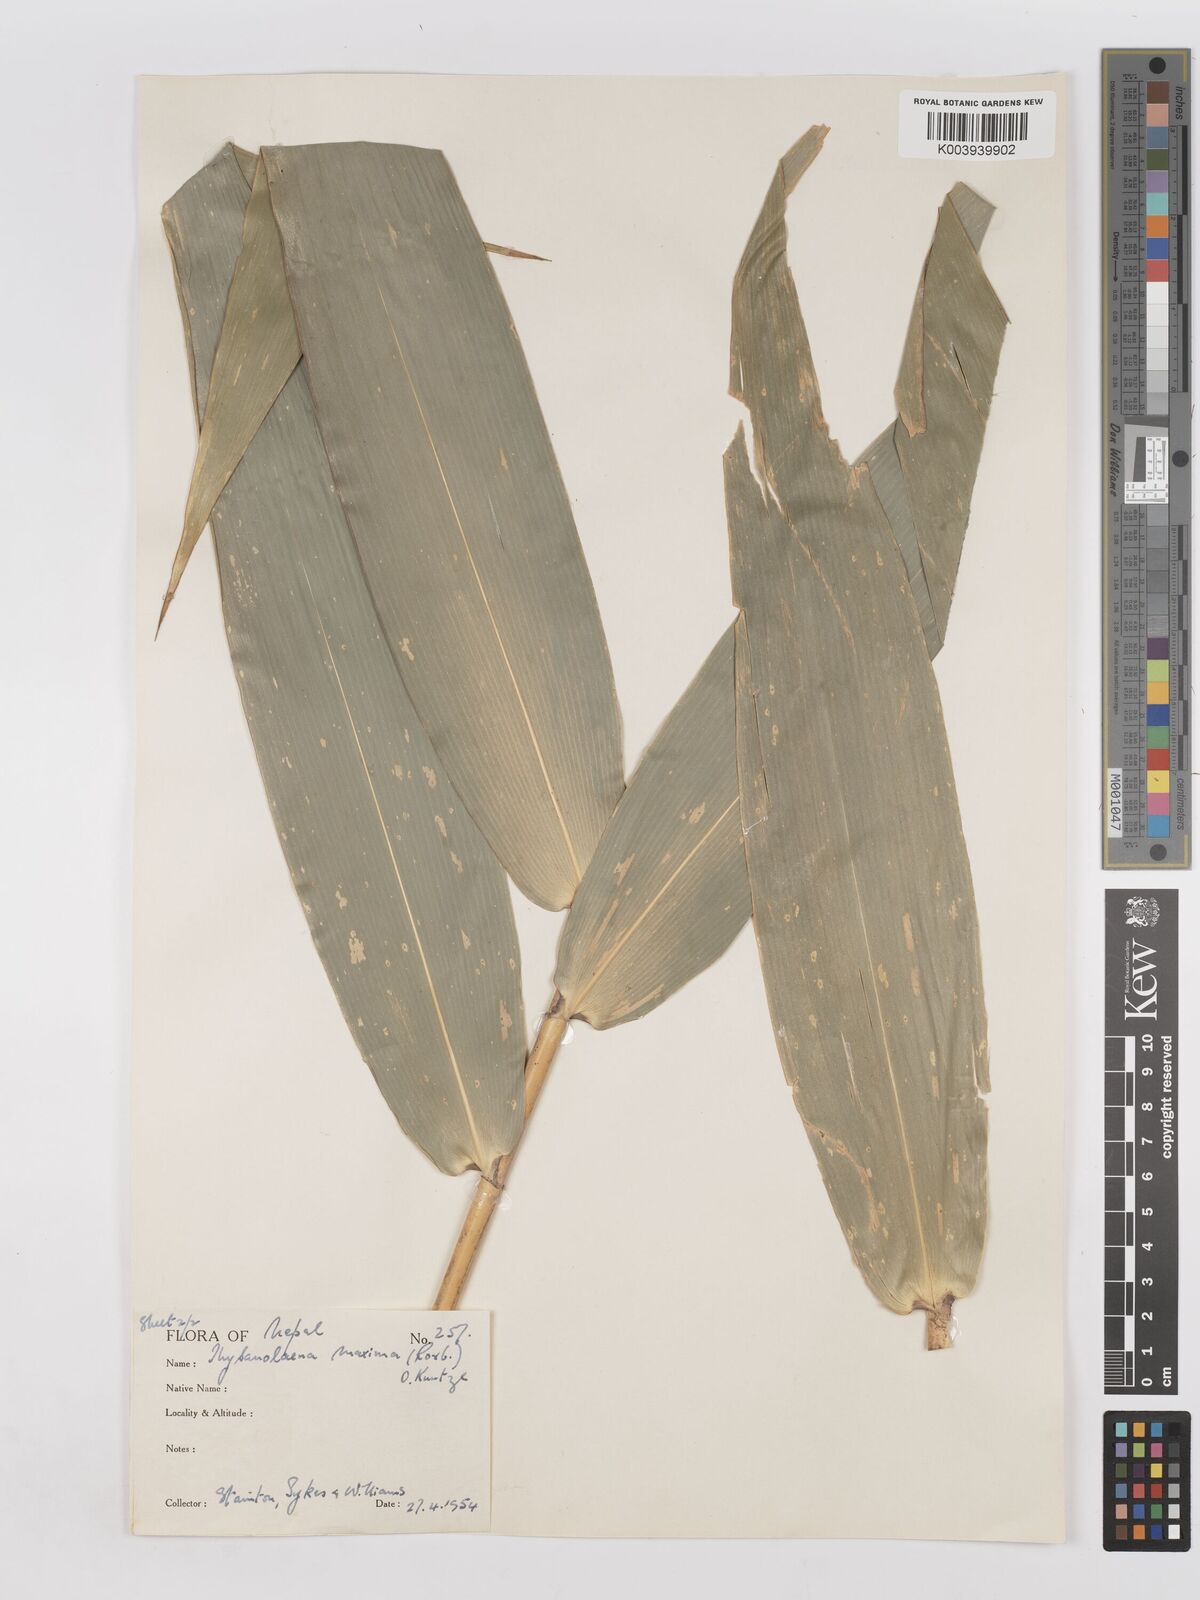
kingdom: Plantae
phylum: Tracheophyta
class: Liliopsida
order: Poales
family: Poaceae
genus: Thysanolaena
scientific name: Thysanolaena latifolia
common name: Tiger grass
